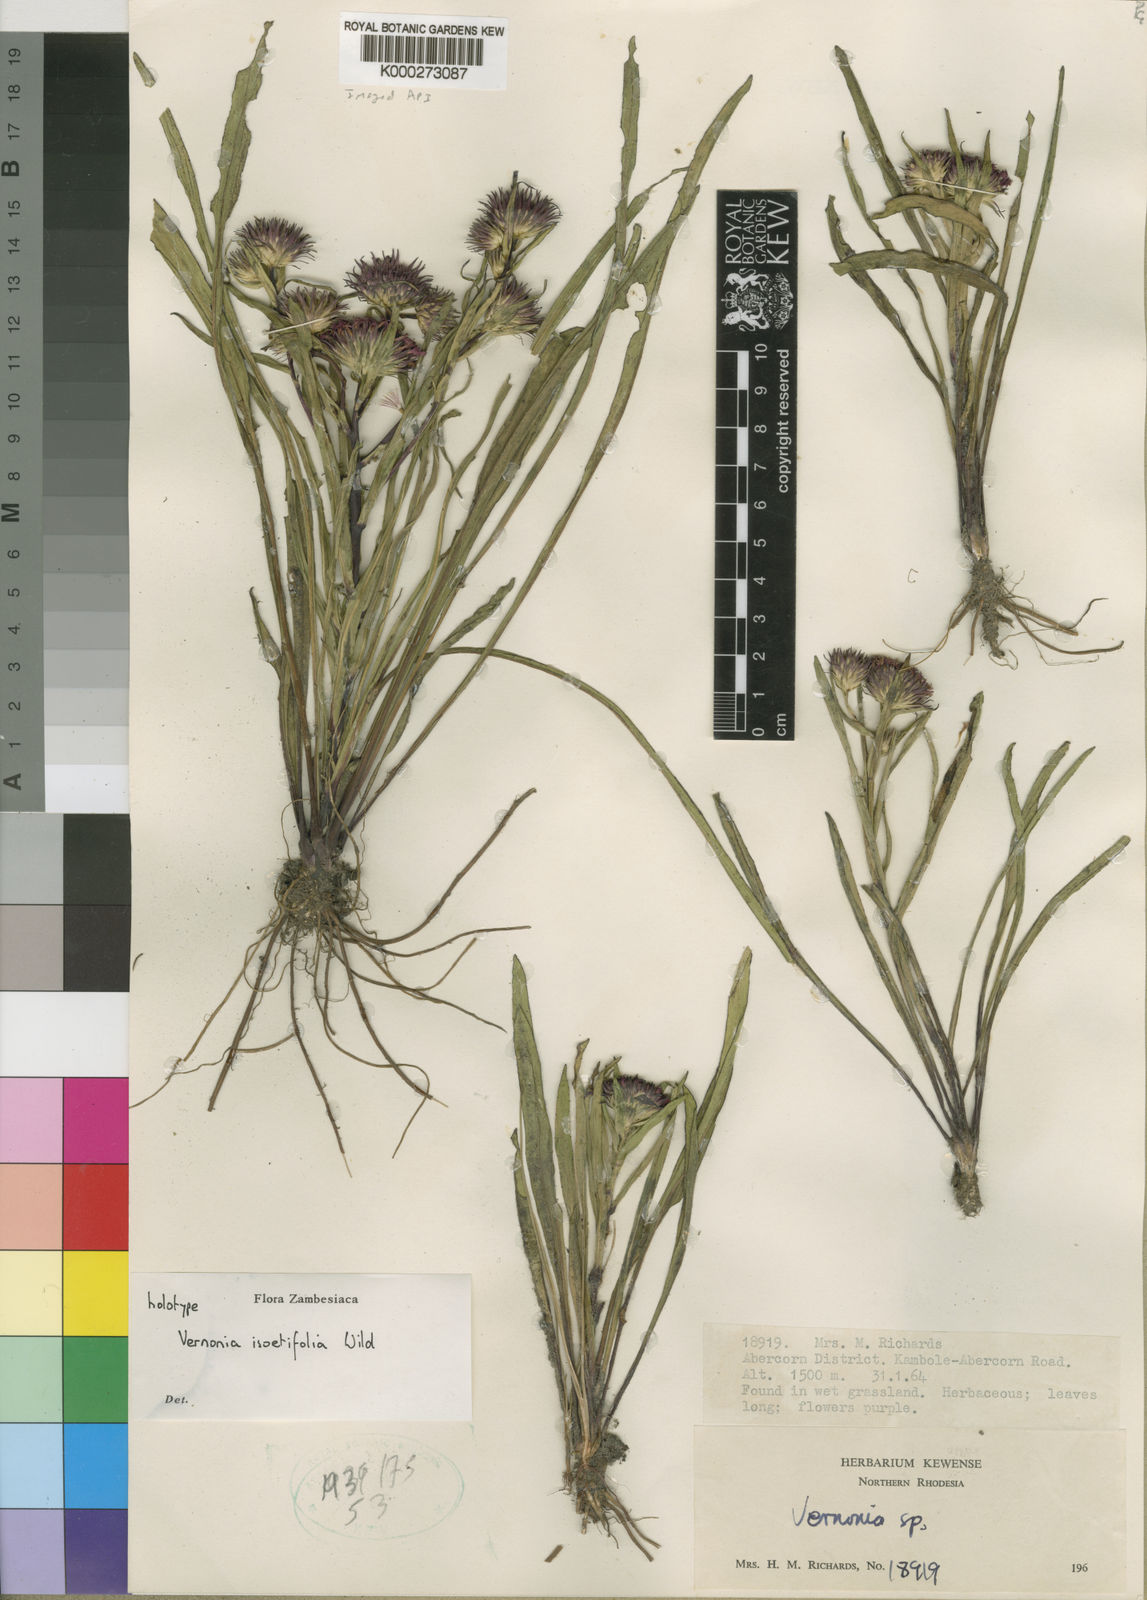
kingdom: Plantae
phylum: Tracheophyta
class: Magnoliopsida
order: Asterales
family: Asteraceae
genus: Vernonia
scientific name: Vernonia isoetifolia
